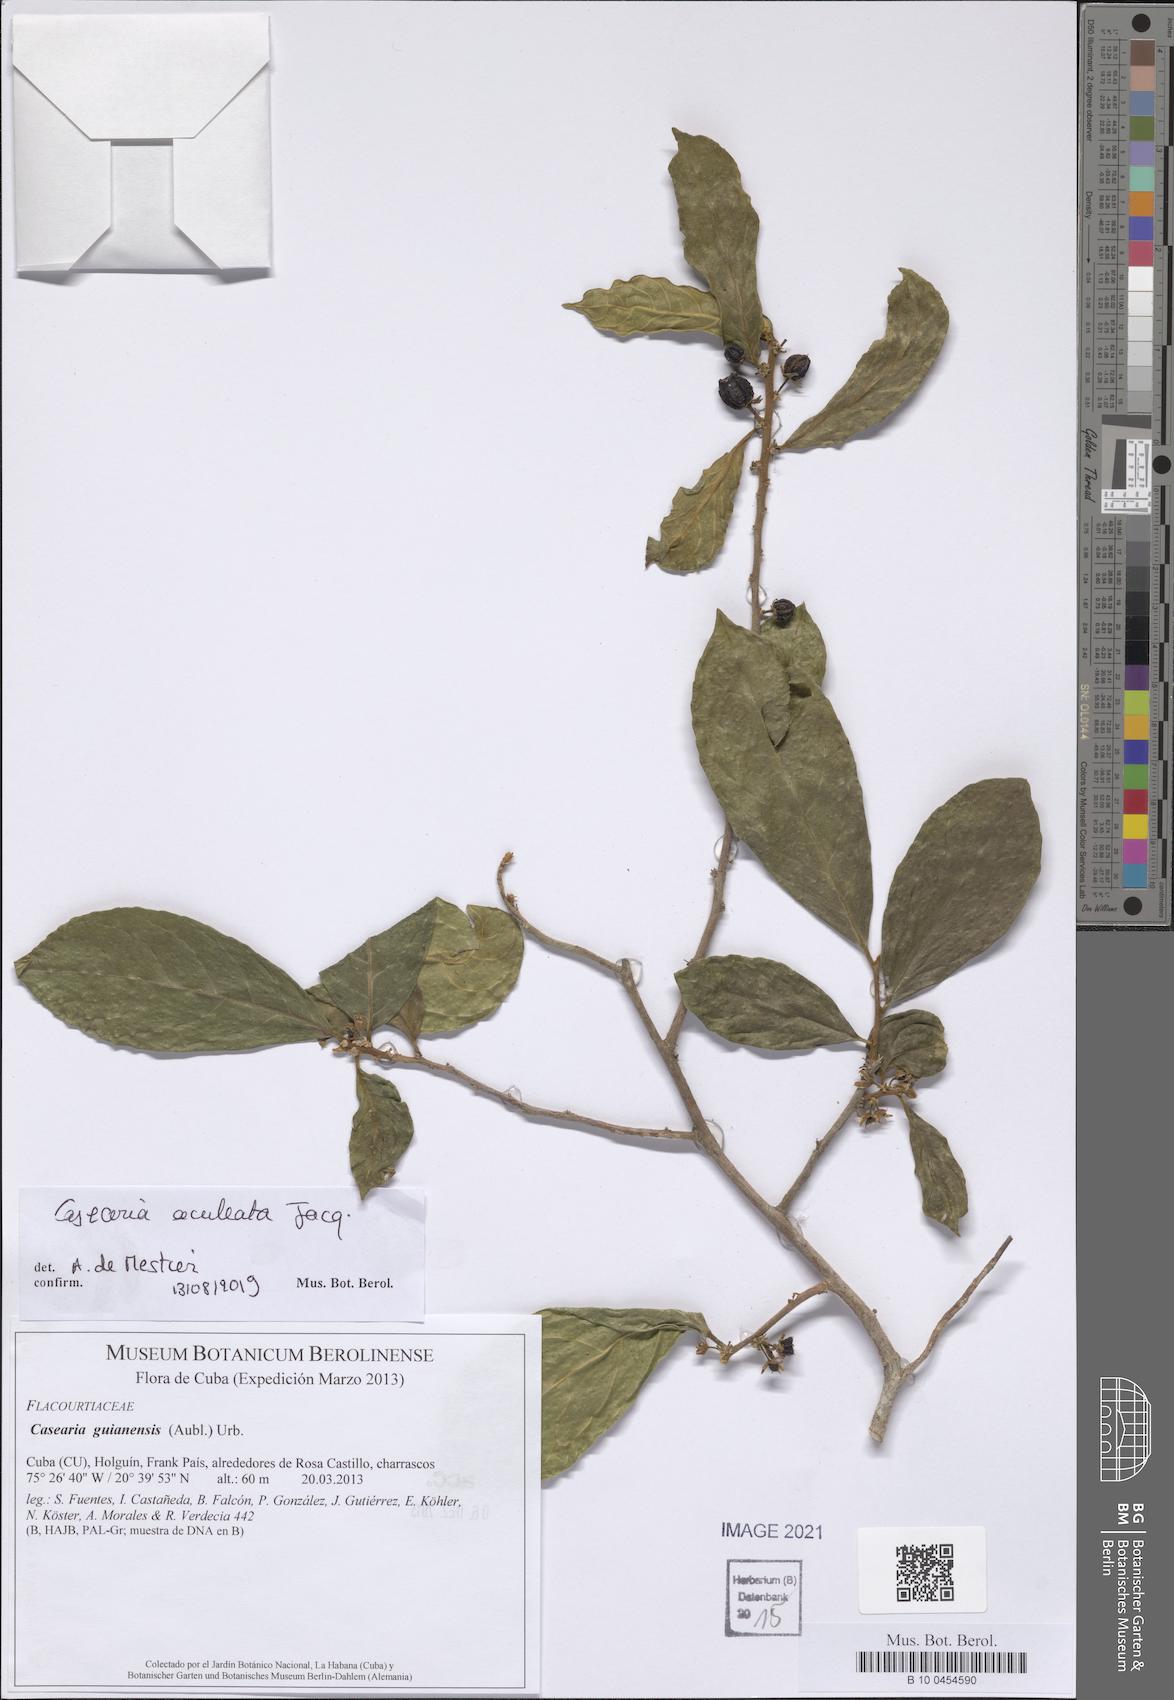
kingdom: Plantae
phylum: Tracheophyta
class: Magnoliopsida
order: Malpighiales
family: Salicaceae
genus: Casearia
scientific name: Casearia aculeata
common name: Cockspur
